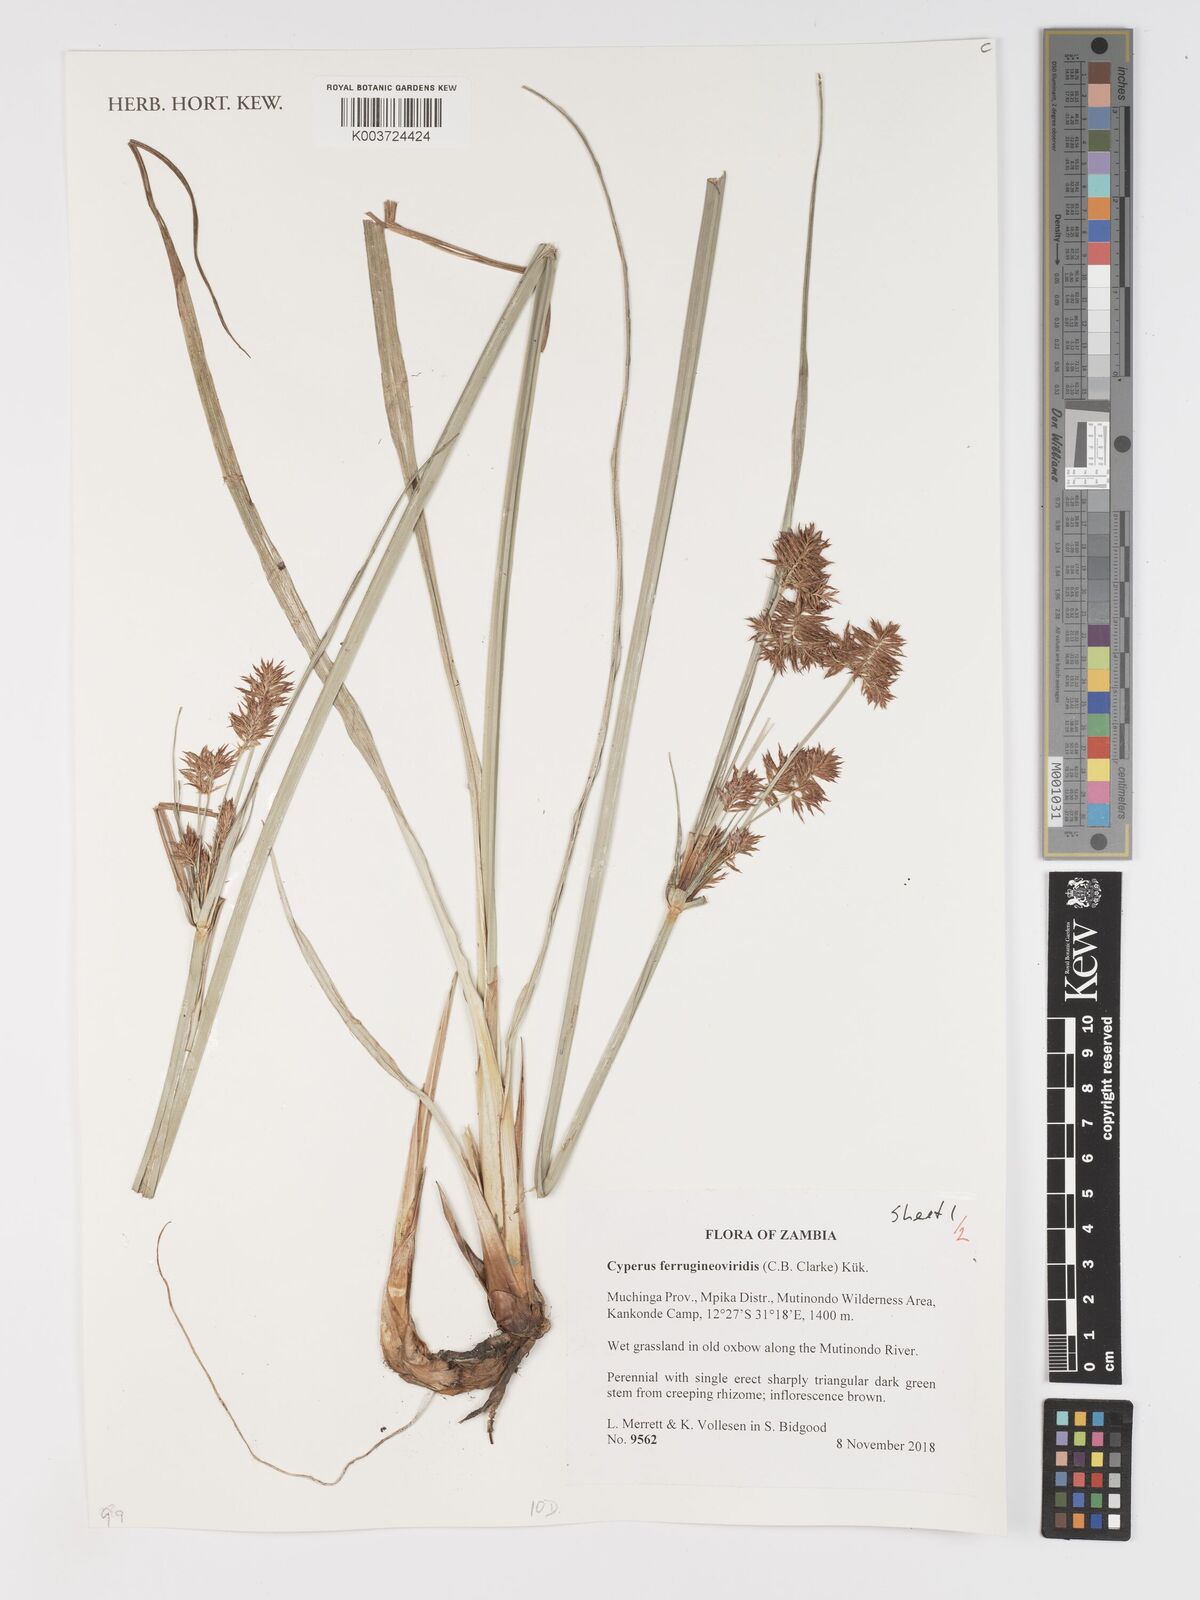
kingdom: Plantae
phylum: Tracheophyta
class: Liliopsida
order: Poales
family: Cyperaceae
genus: Cyperus
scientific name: Cyperus ferrugineoviridis
